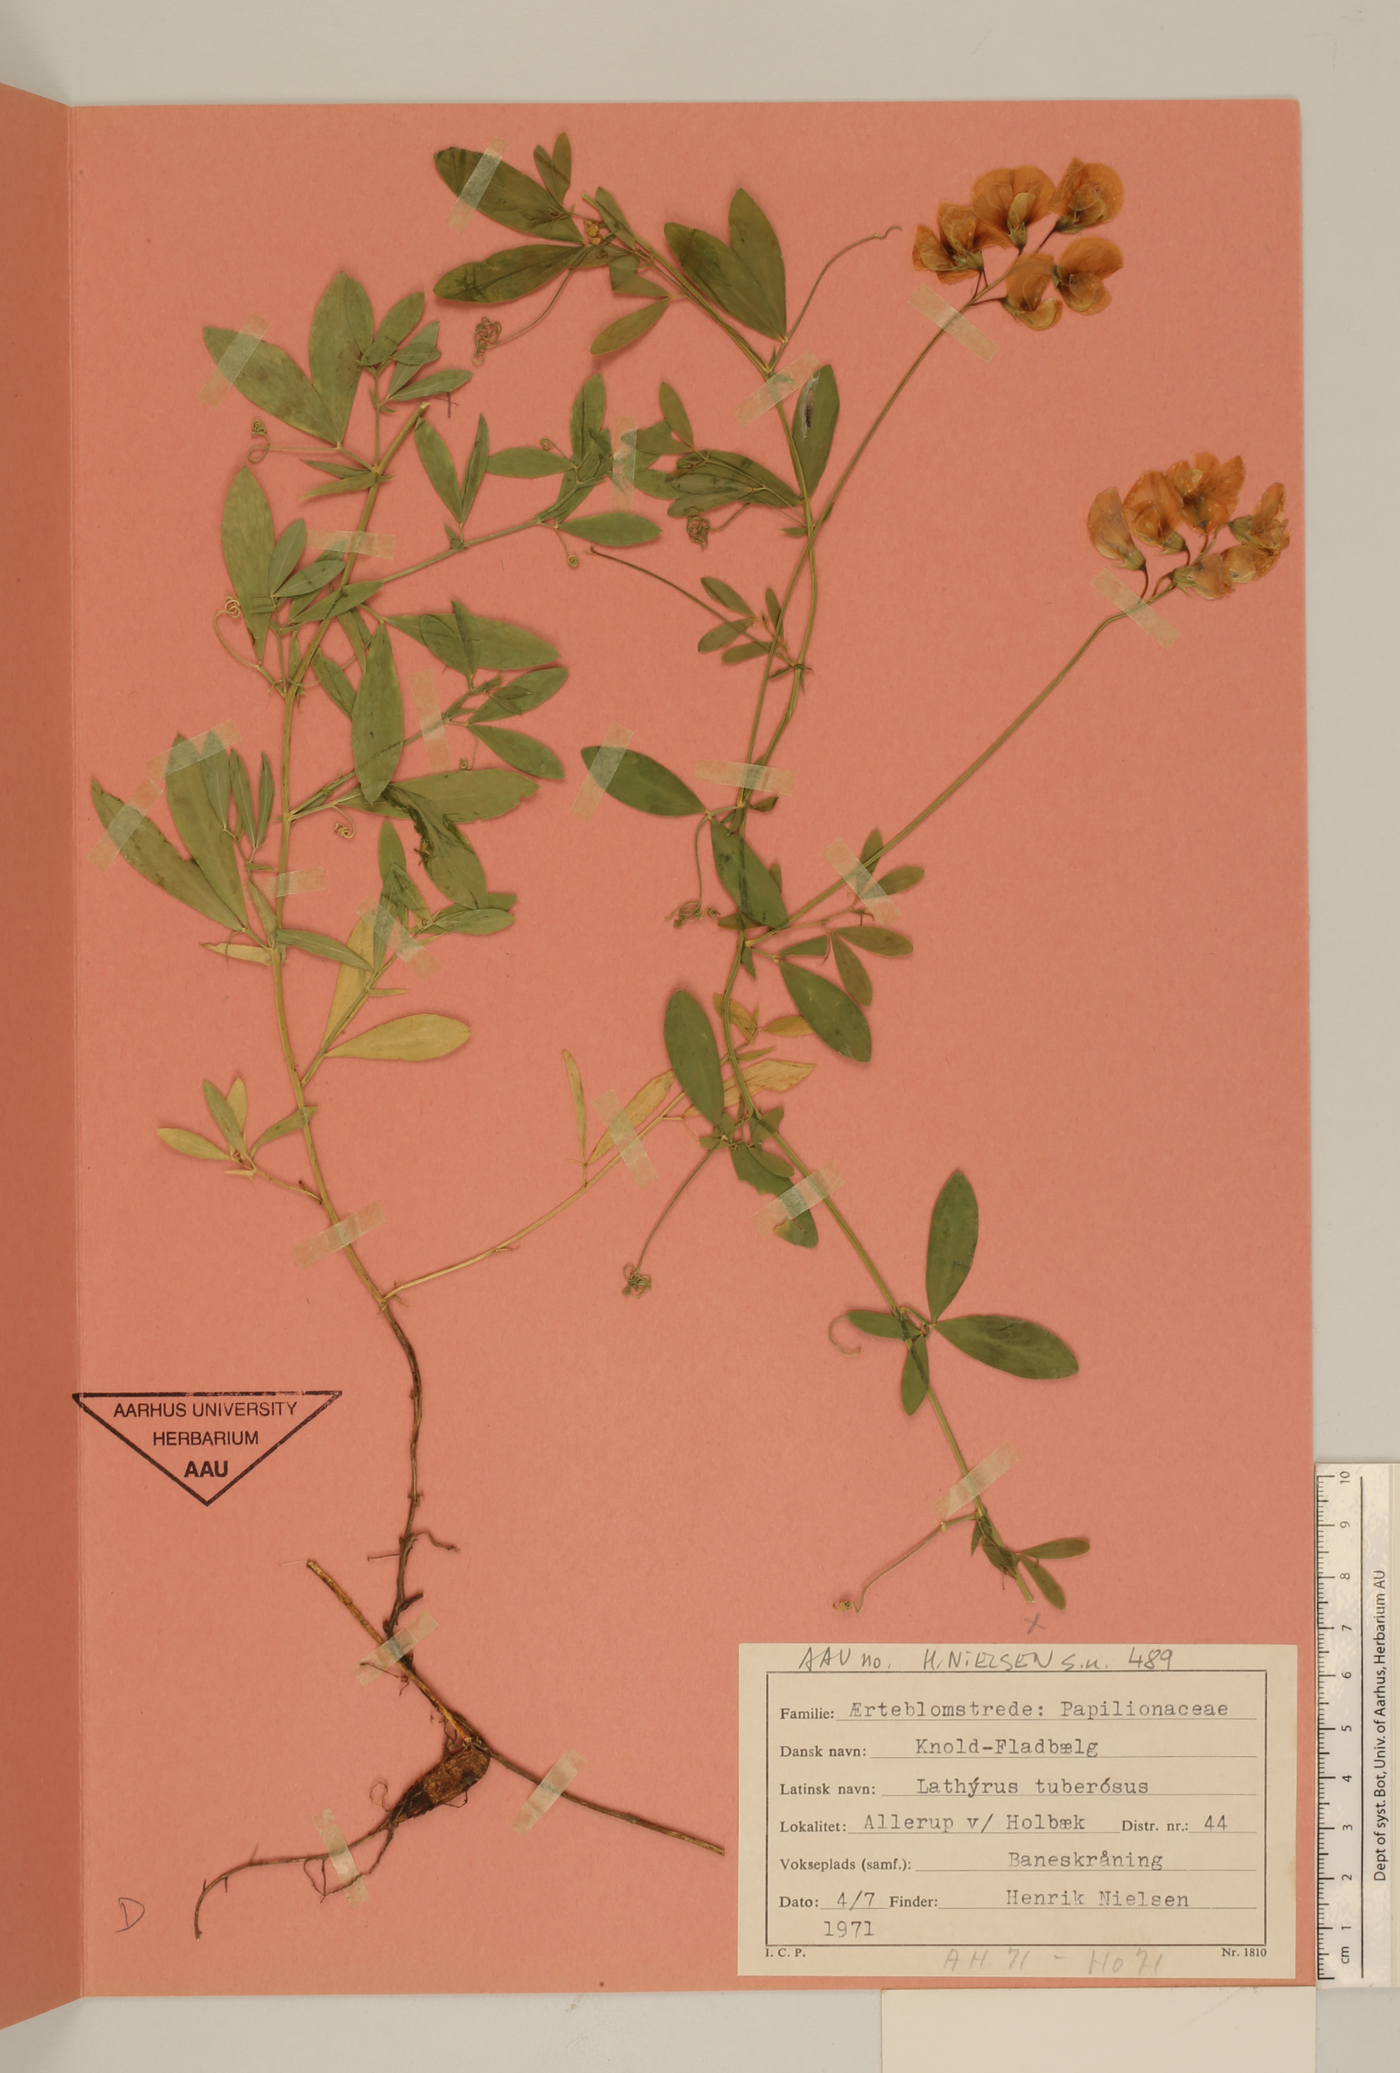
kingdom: Plantae
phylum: Tracheophyta
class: Magnoliopsida
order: Fabales
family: Fabaceae
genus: Lathyrus
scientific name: Lathyrus tuberosus
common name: Tuberous pea
